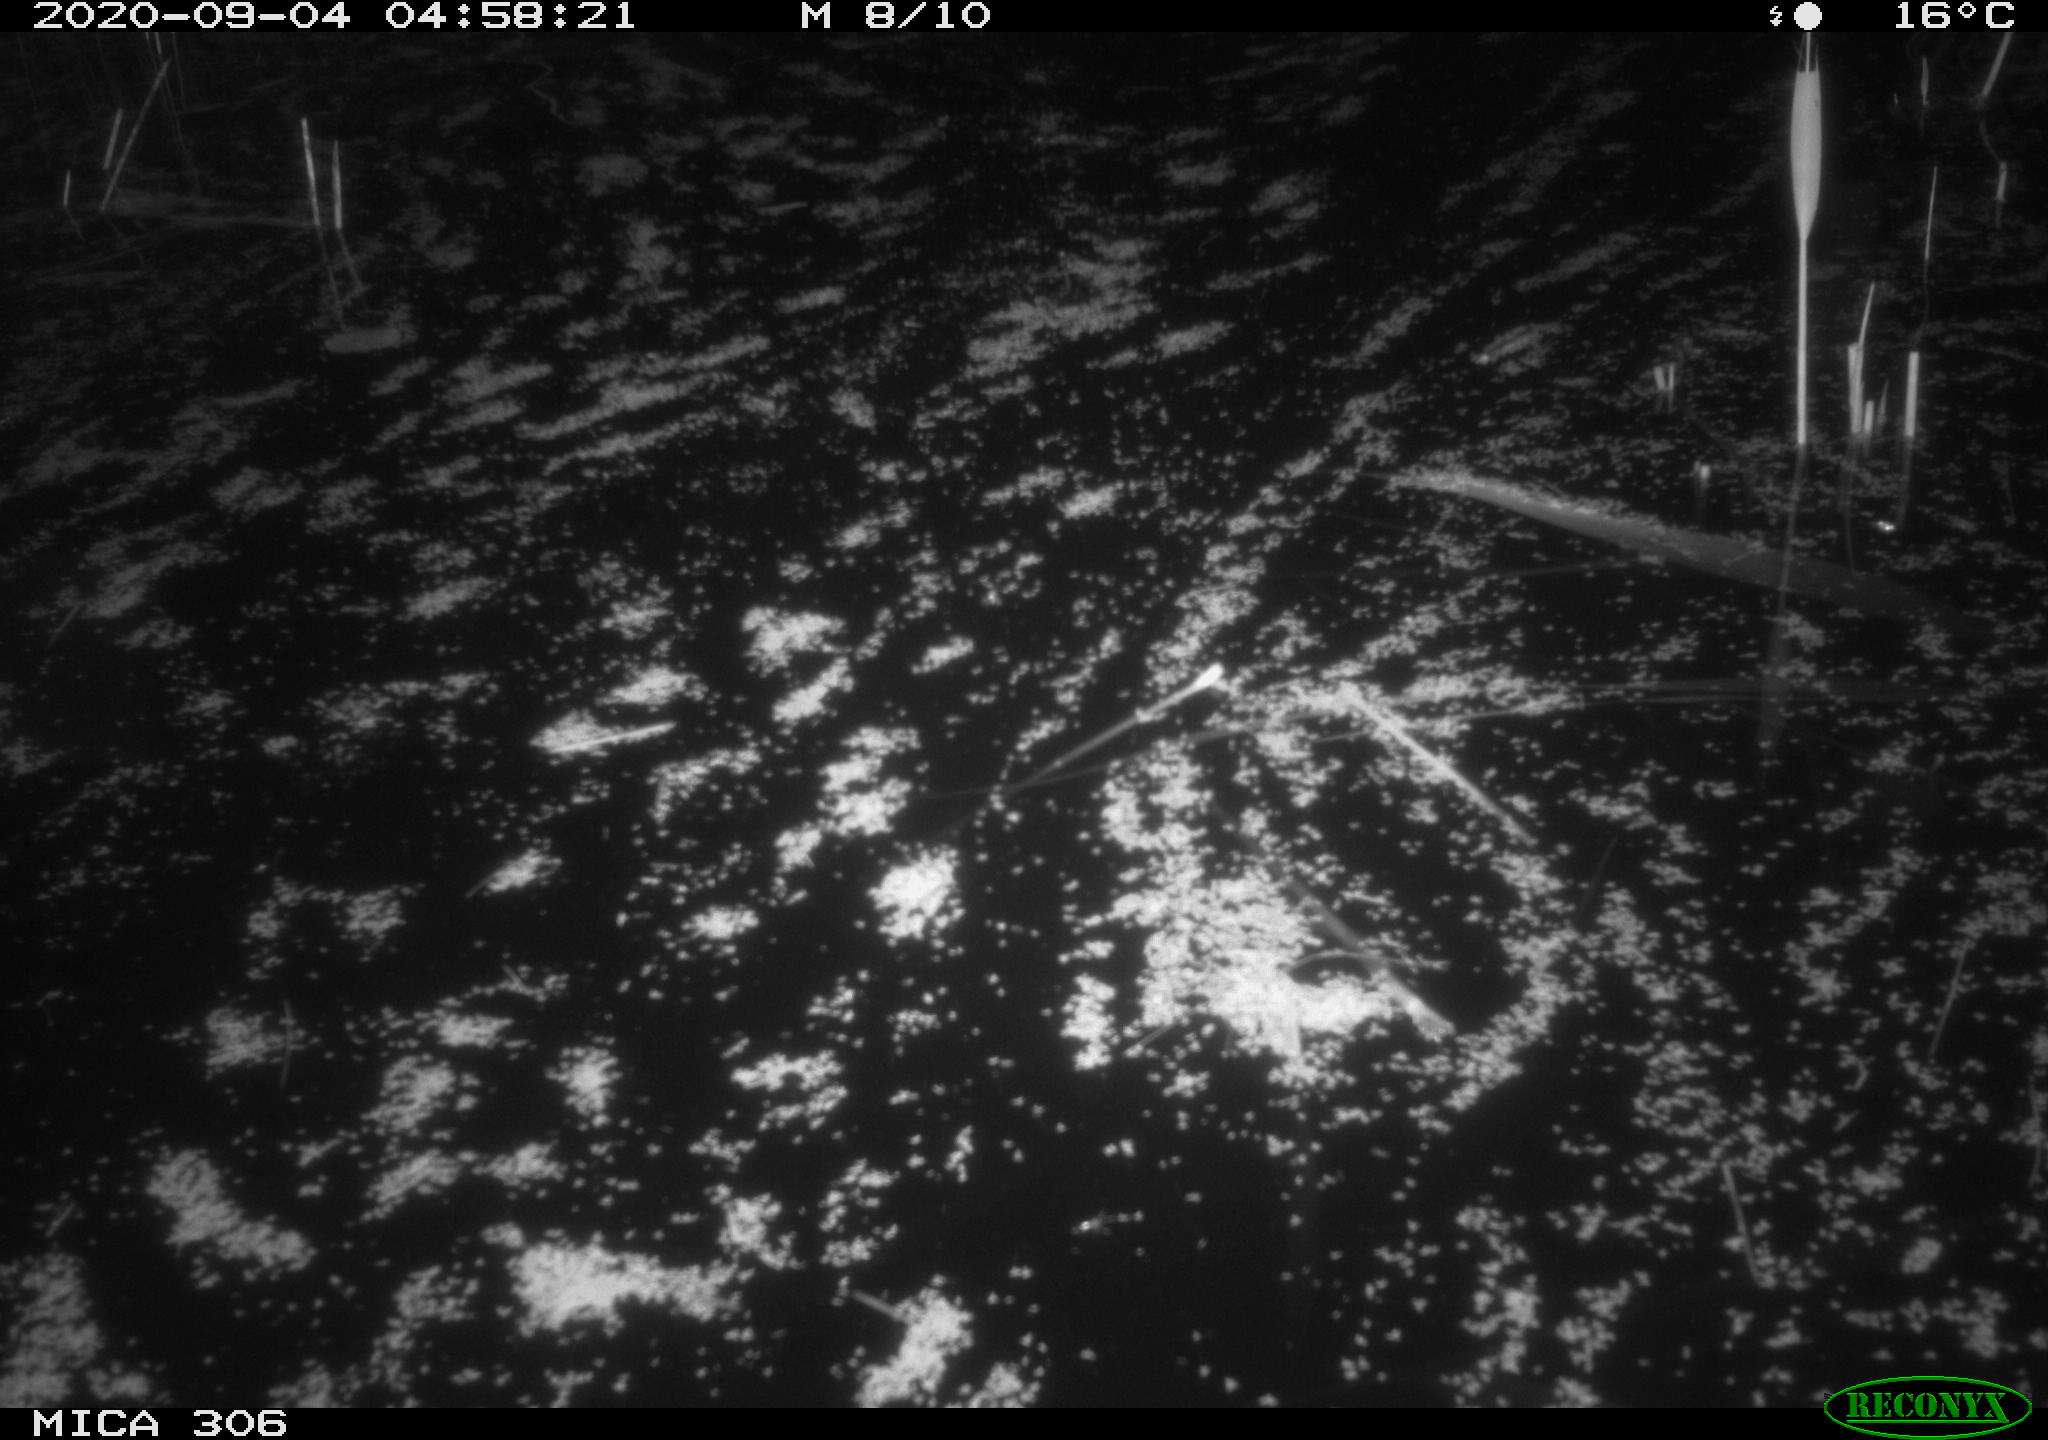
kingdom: Animalia
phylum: Chordata
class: Mammalia
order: Rodentia
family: Muridae
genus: Rattus
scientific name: Rattus norvegicus
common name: Brown rat
